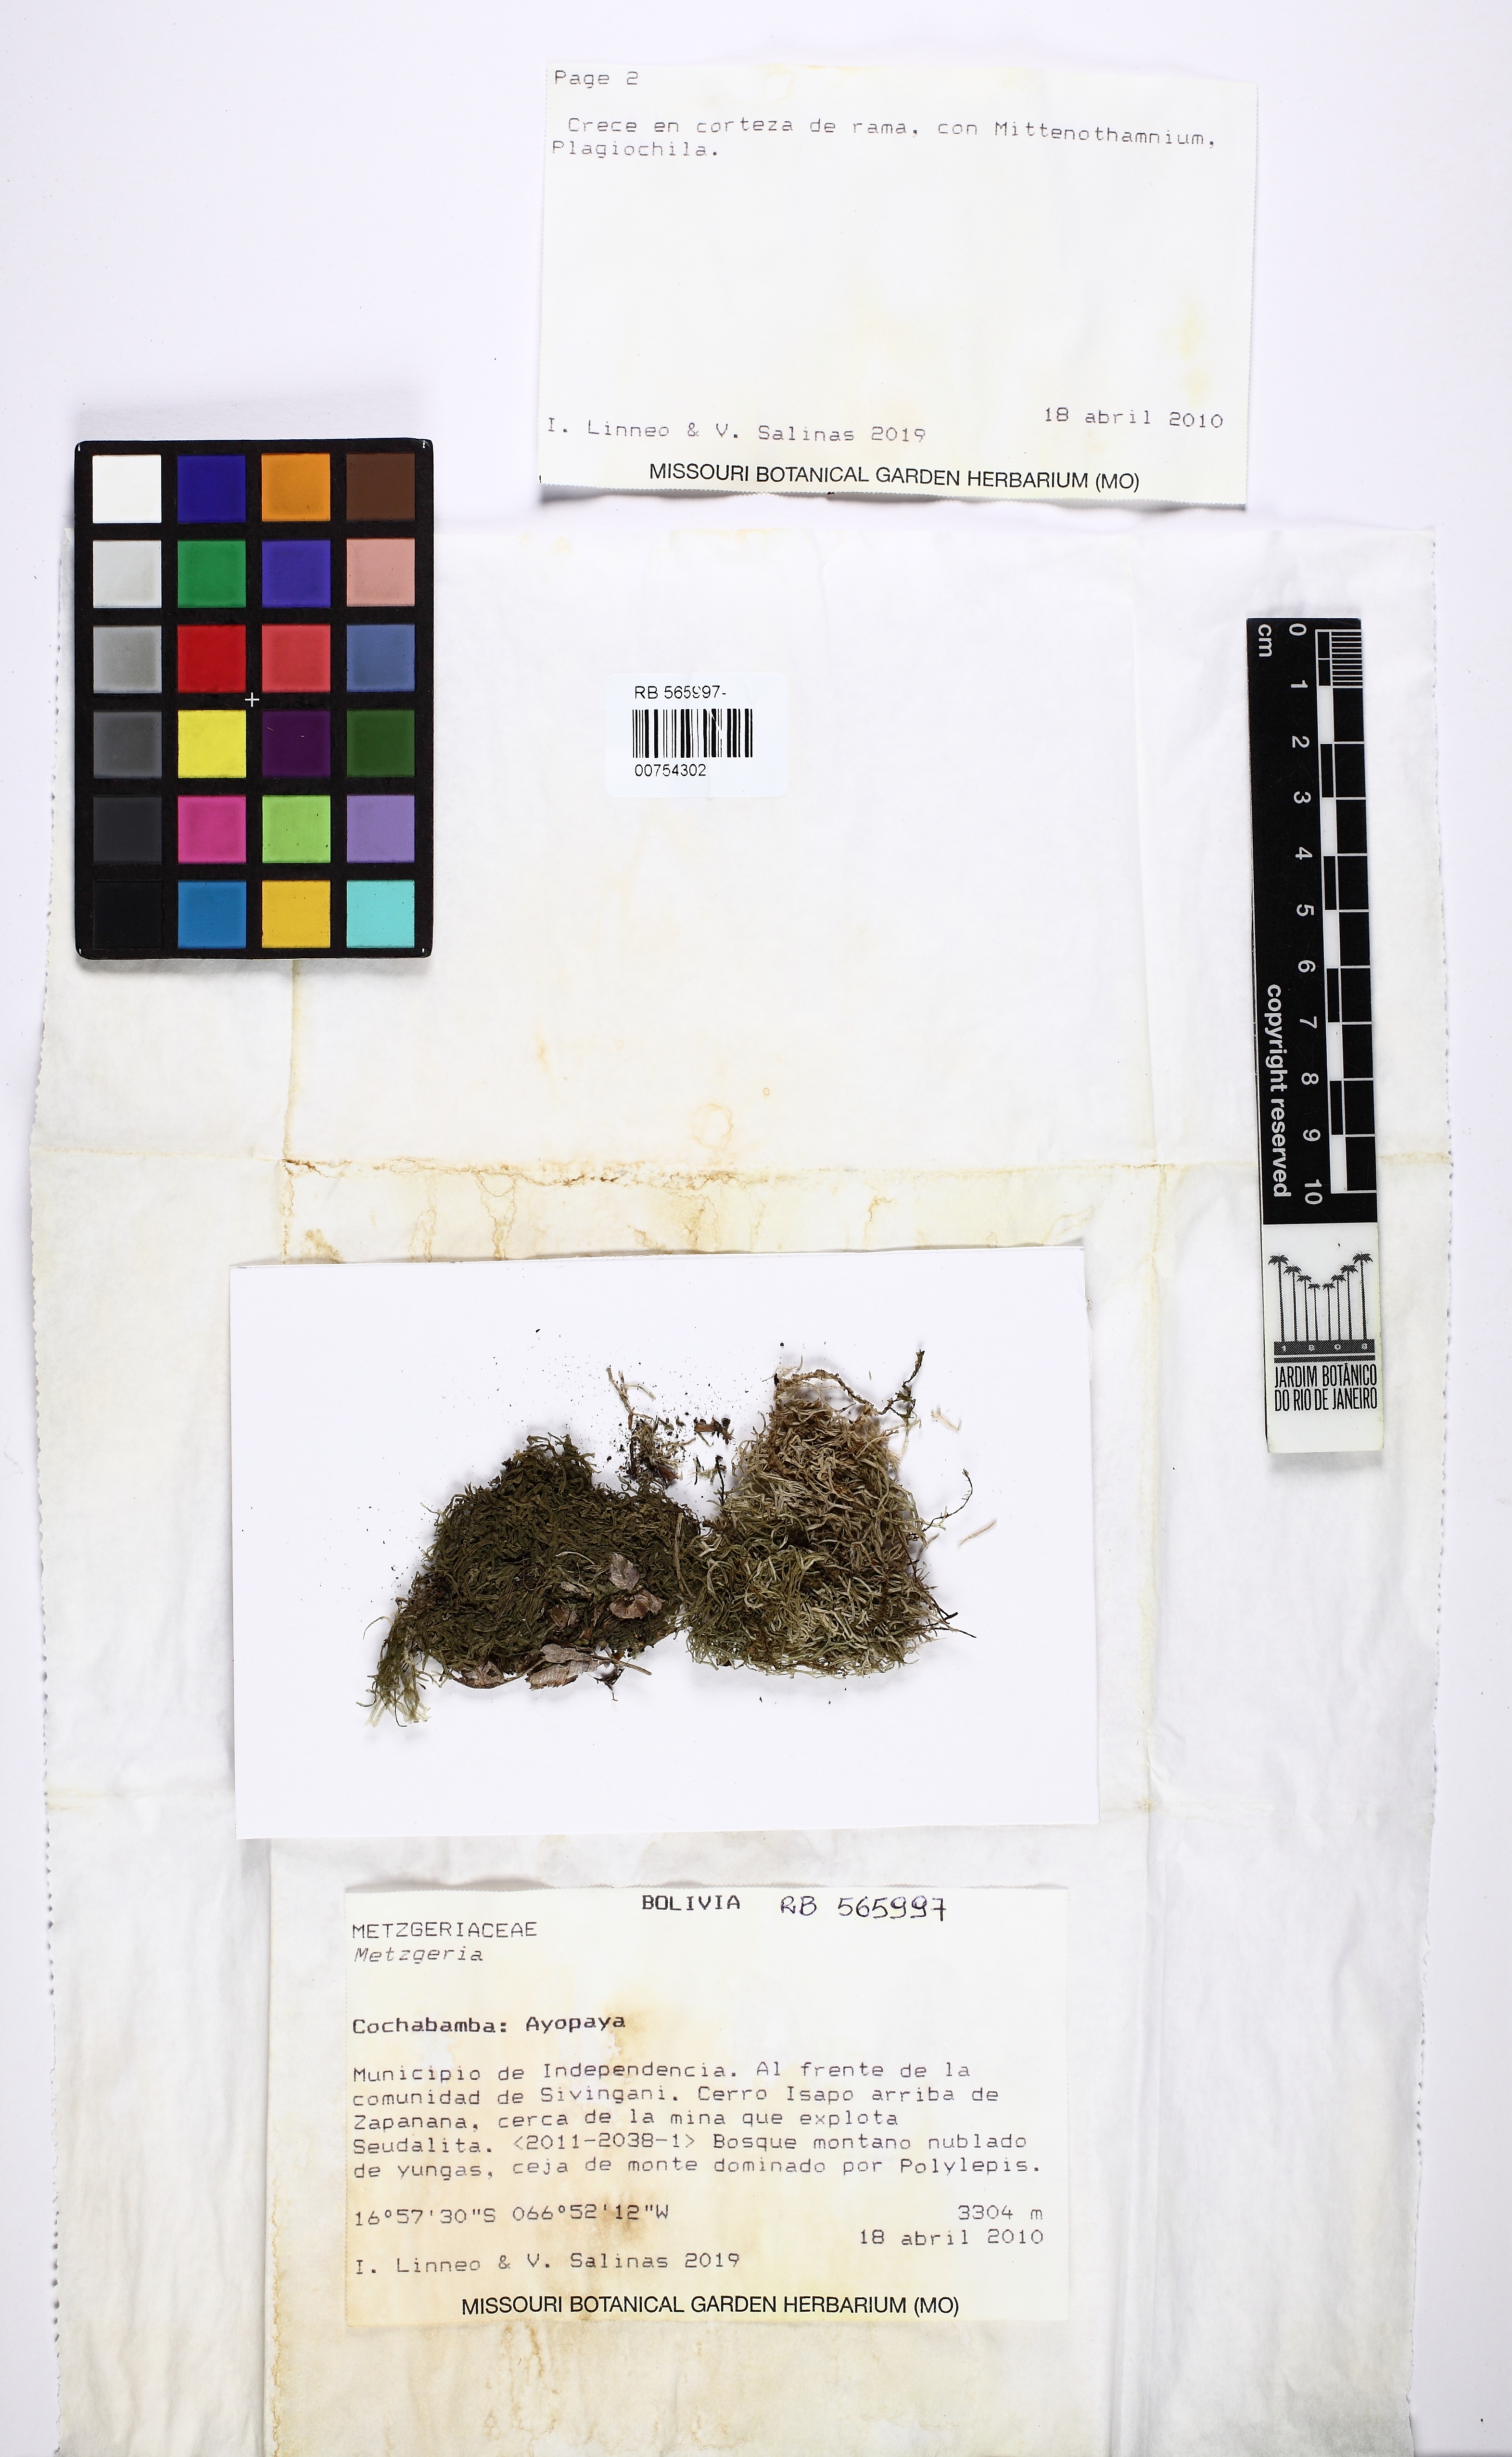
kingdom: Plantae
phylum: Marchantiophyta
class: Jungermanniopsida
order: Metzgeriales
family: Metzgeriaceae
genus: Metzgeria
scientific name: Metzgeria
